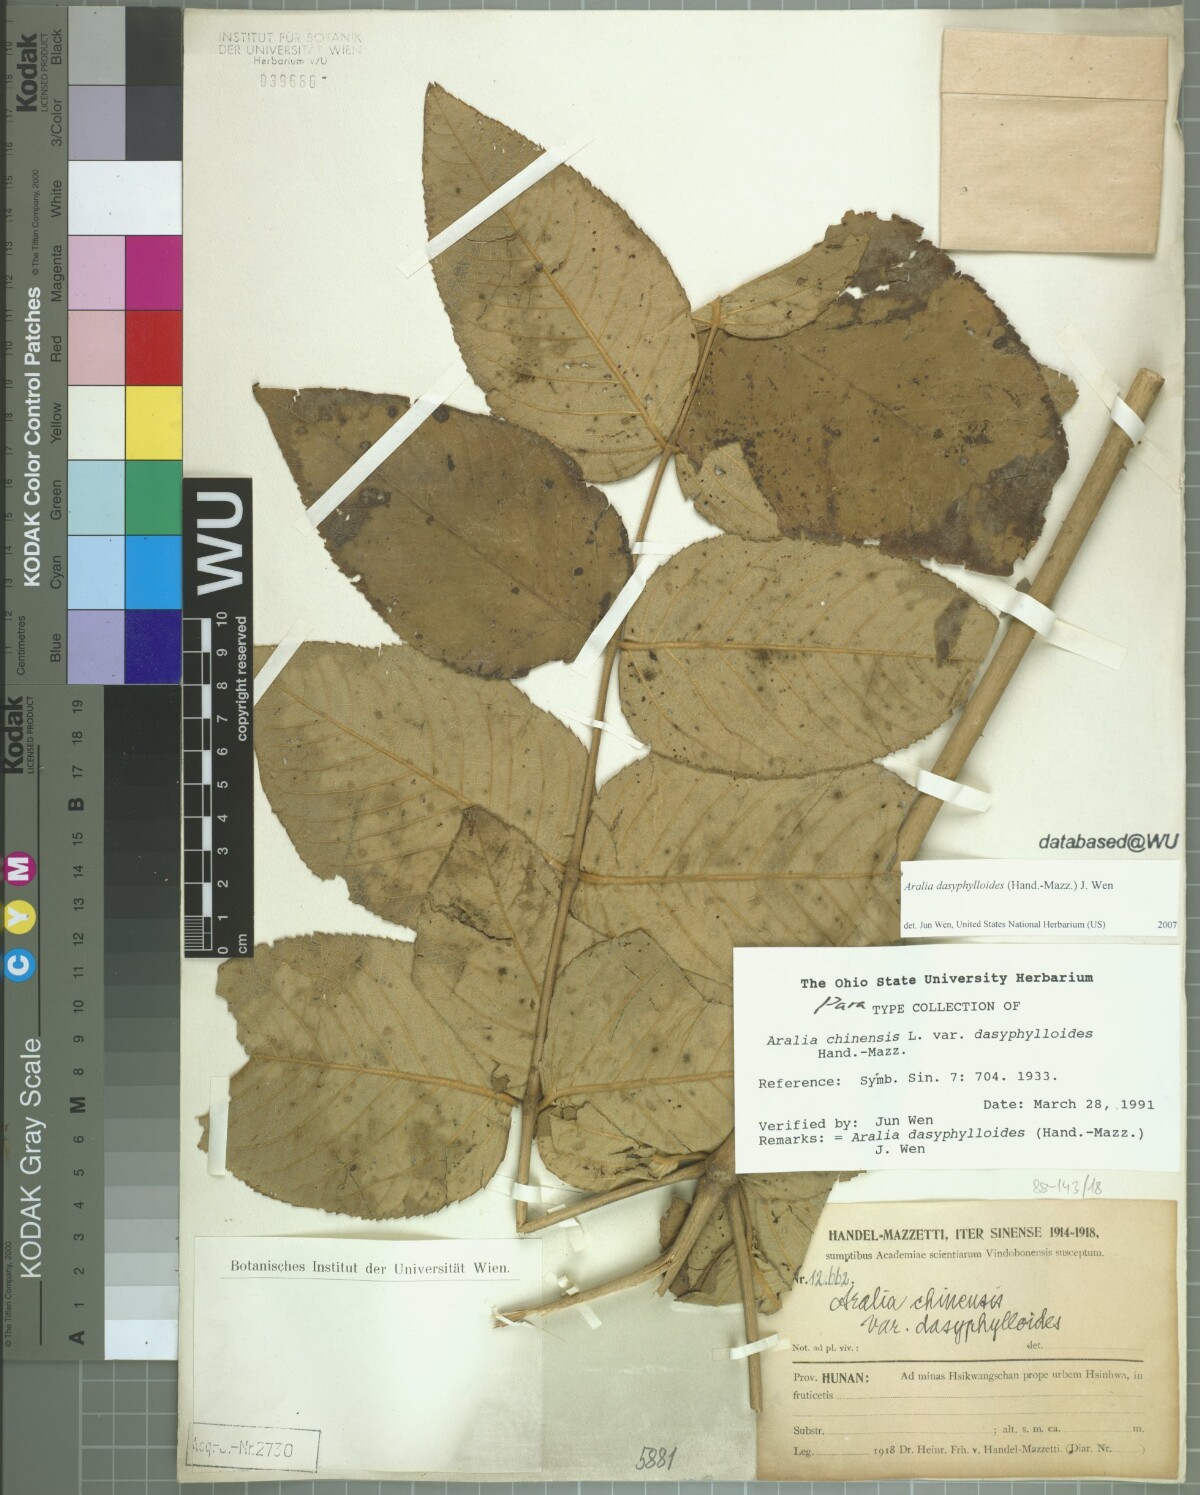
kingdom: Plantae
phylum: Tracheophyta
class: Magnoliopsida
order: Apiales
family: Araliaceae
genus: Aralia
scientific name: Aralia dasyphylloides
